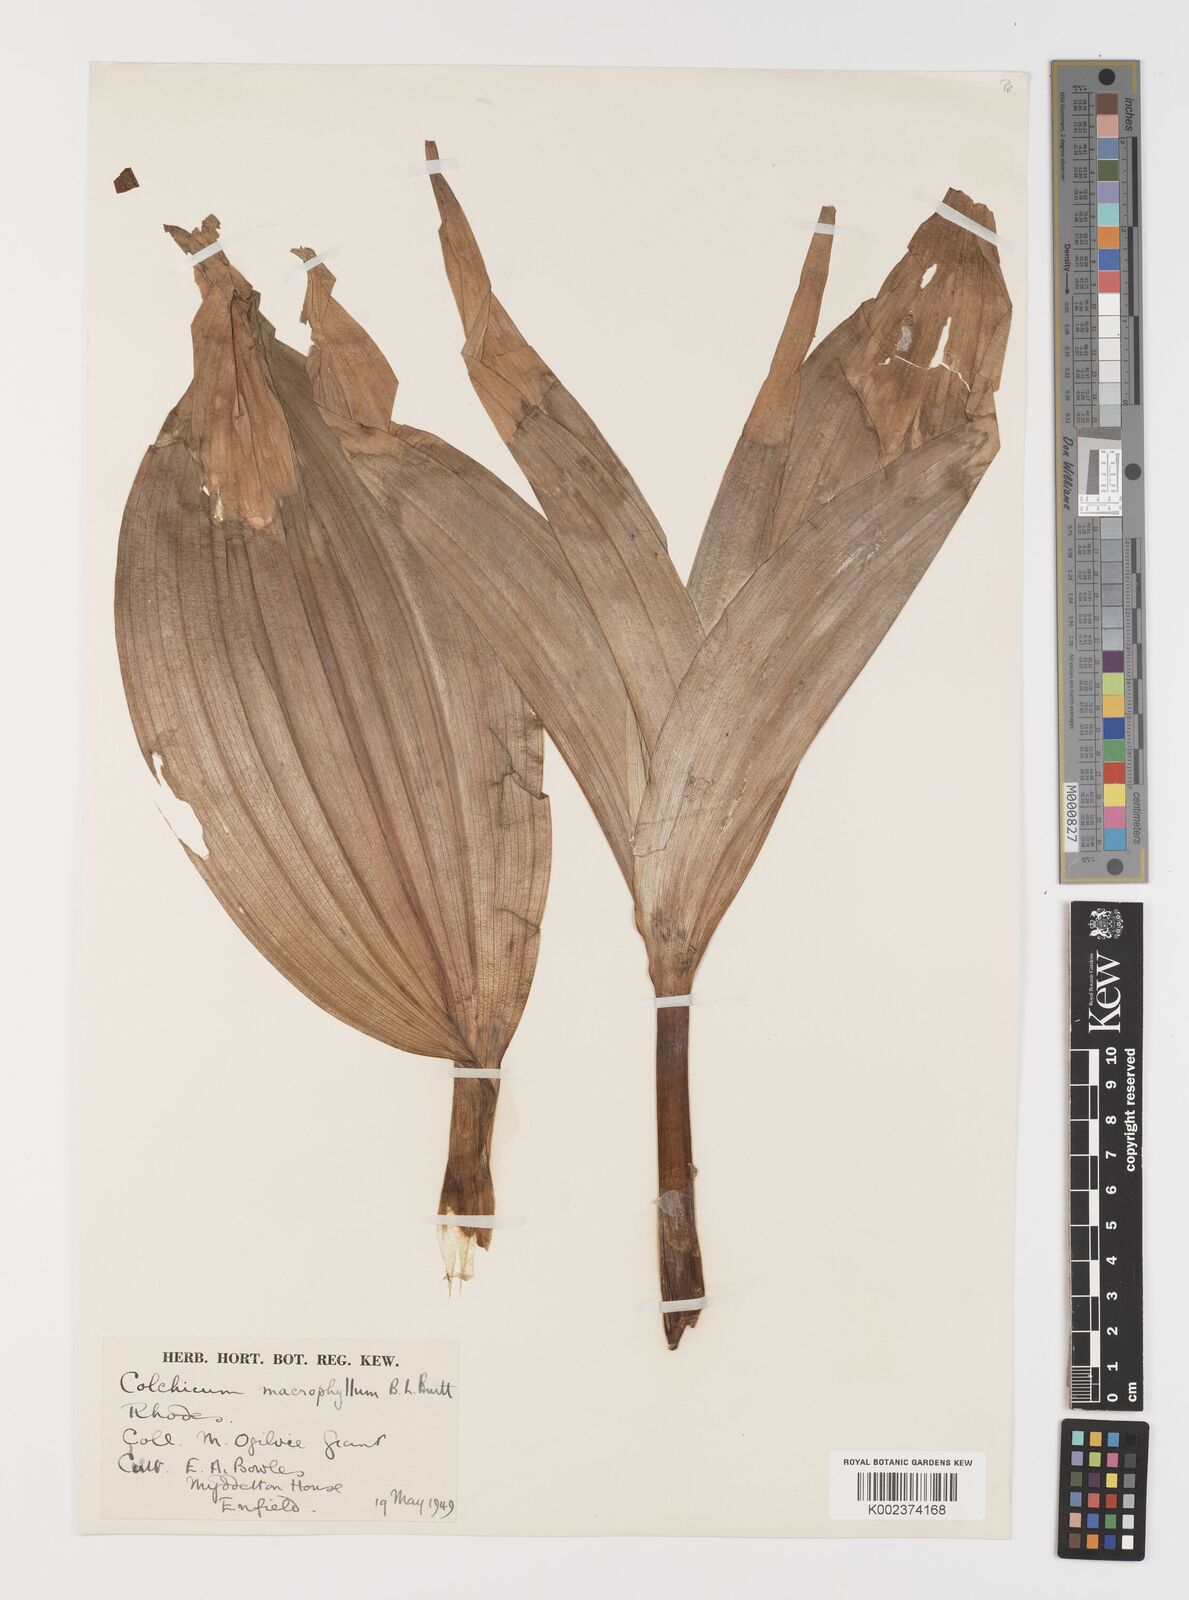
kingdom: Plantae
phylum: Tracheophyta
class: Liliopsida
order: Liliales
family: Colchicaceae
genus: Colchicum
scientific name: Colchicum macrophyllum
